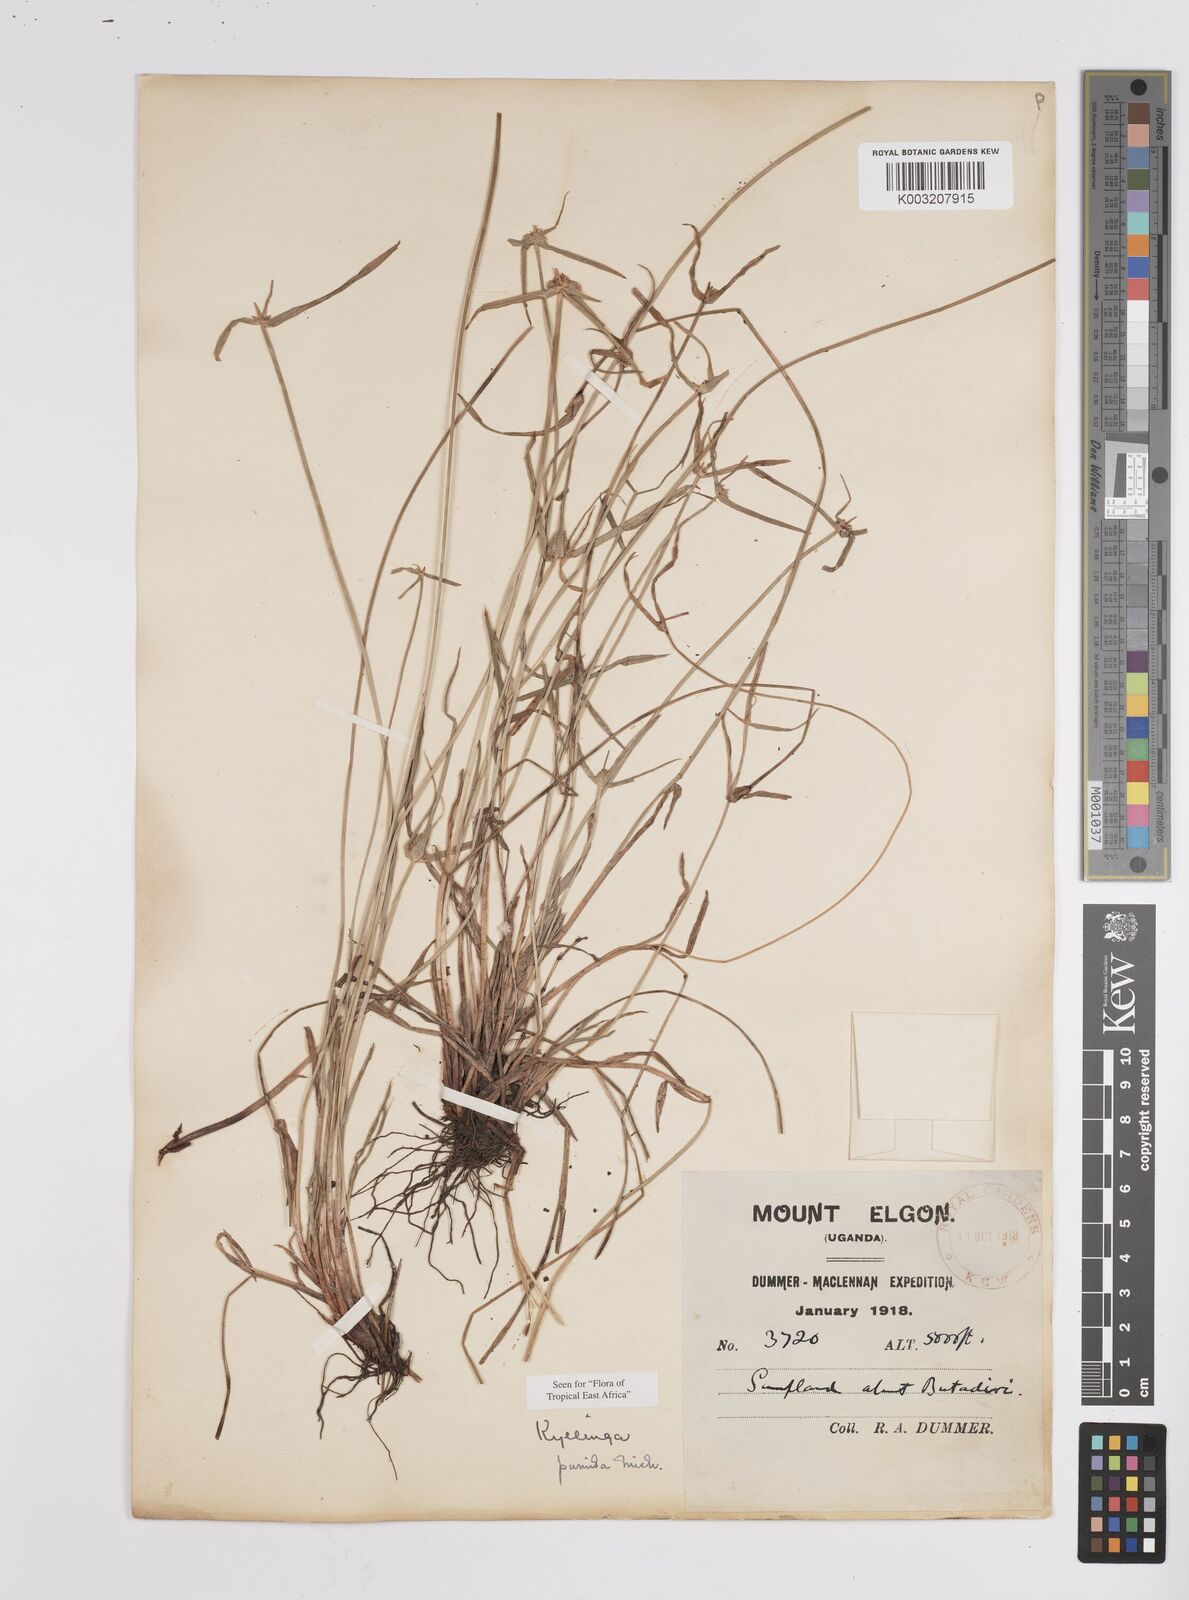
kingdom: Plantae
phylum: Tracheophyta
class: Liliopsida
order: Poales
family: Cyperaceae
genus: Cyperus
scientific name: Cyperus
